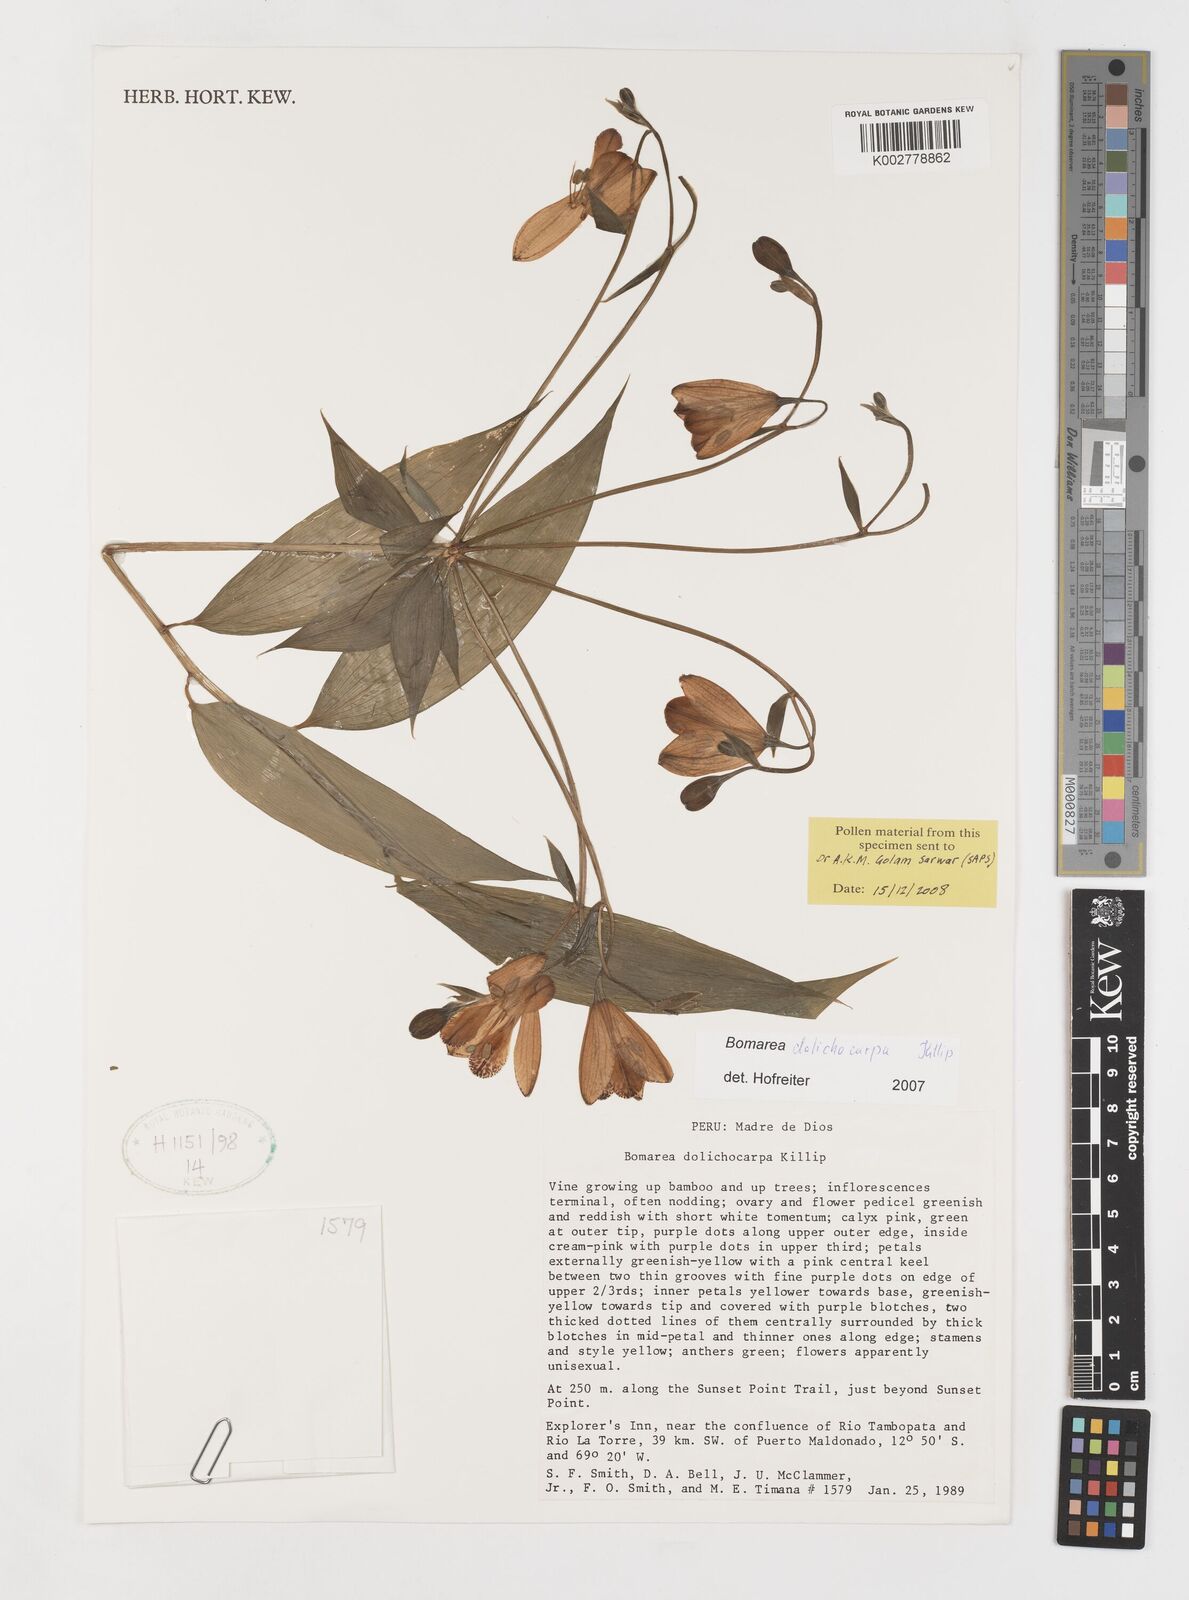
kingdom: Plantae
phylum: Tracheophyta
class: Liliopsida
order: Liliales
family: Alstroemeriaceae
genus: Bomarea
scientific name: Bomarea dolichocarpa
